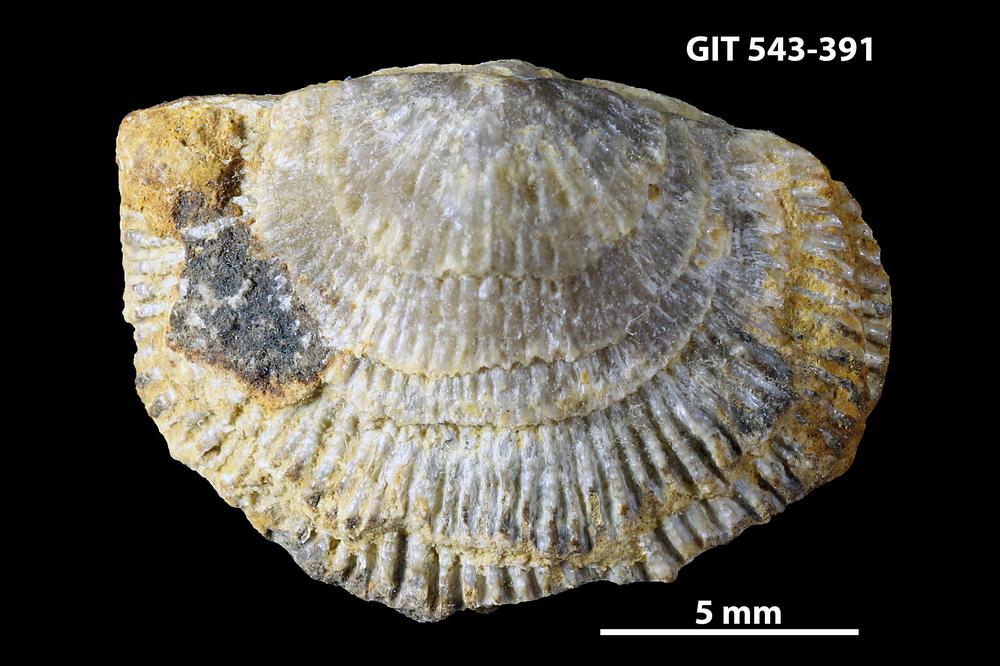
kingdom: Animalia
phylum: Brachiopoda
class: Rhynchonellata
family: Clitambonitidae
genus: Clitambonites
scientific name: Clitambonites Orthisina schmidti
